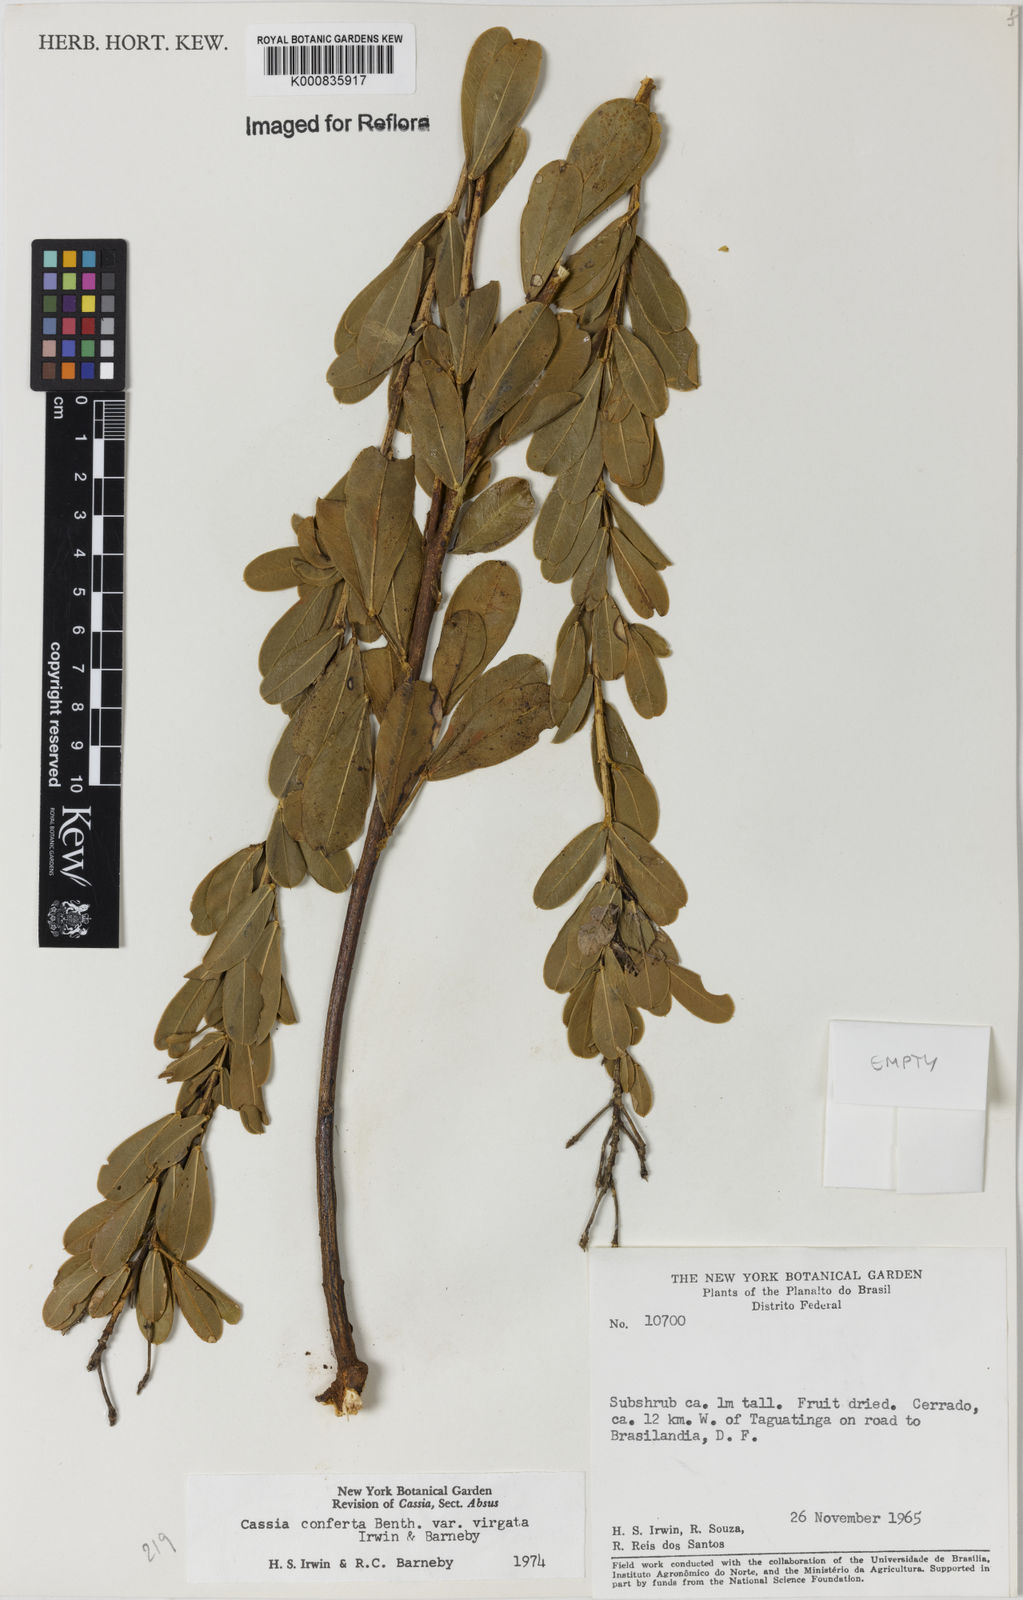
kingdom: Plantae
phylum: Tracheophyta
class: Magnoliopsida
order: Fabales
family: Fabaceae
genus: Chamaecrista
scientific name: Chamaecrista conferta
